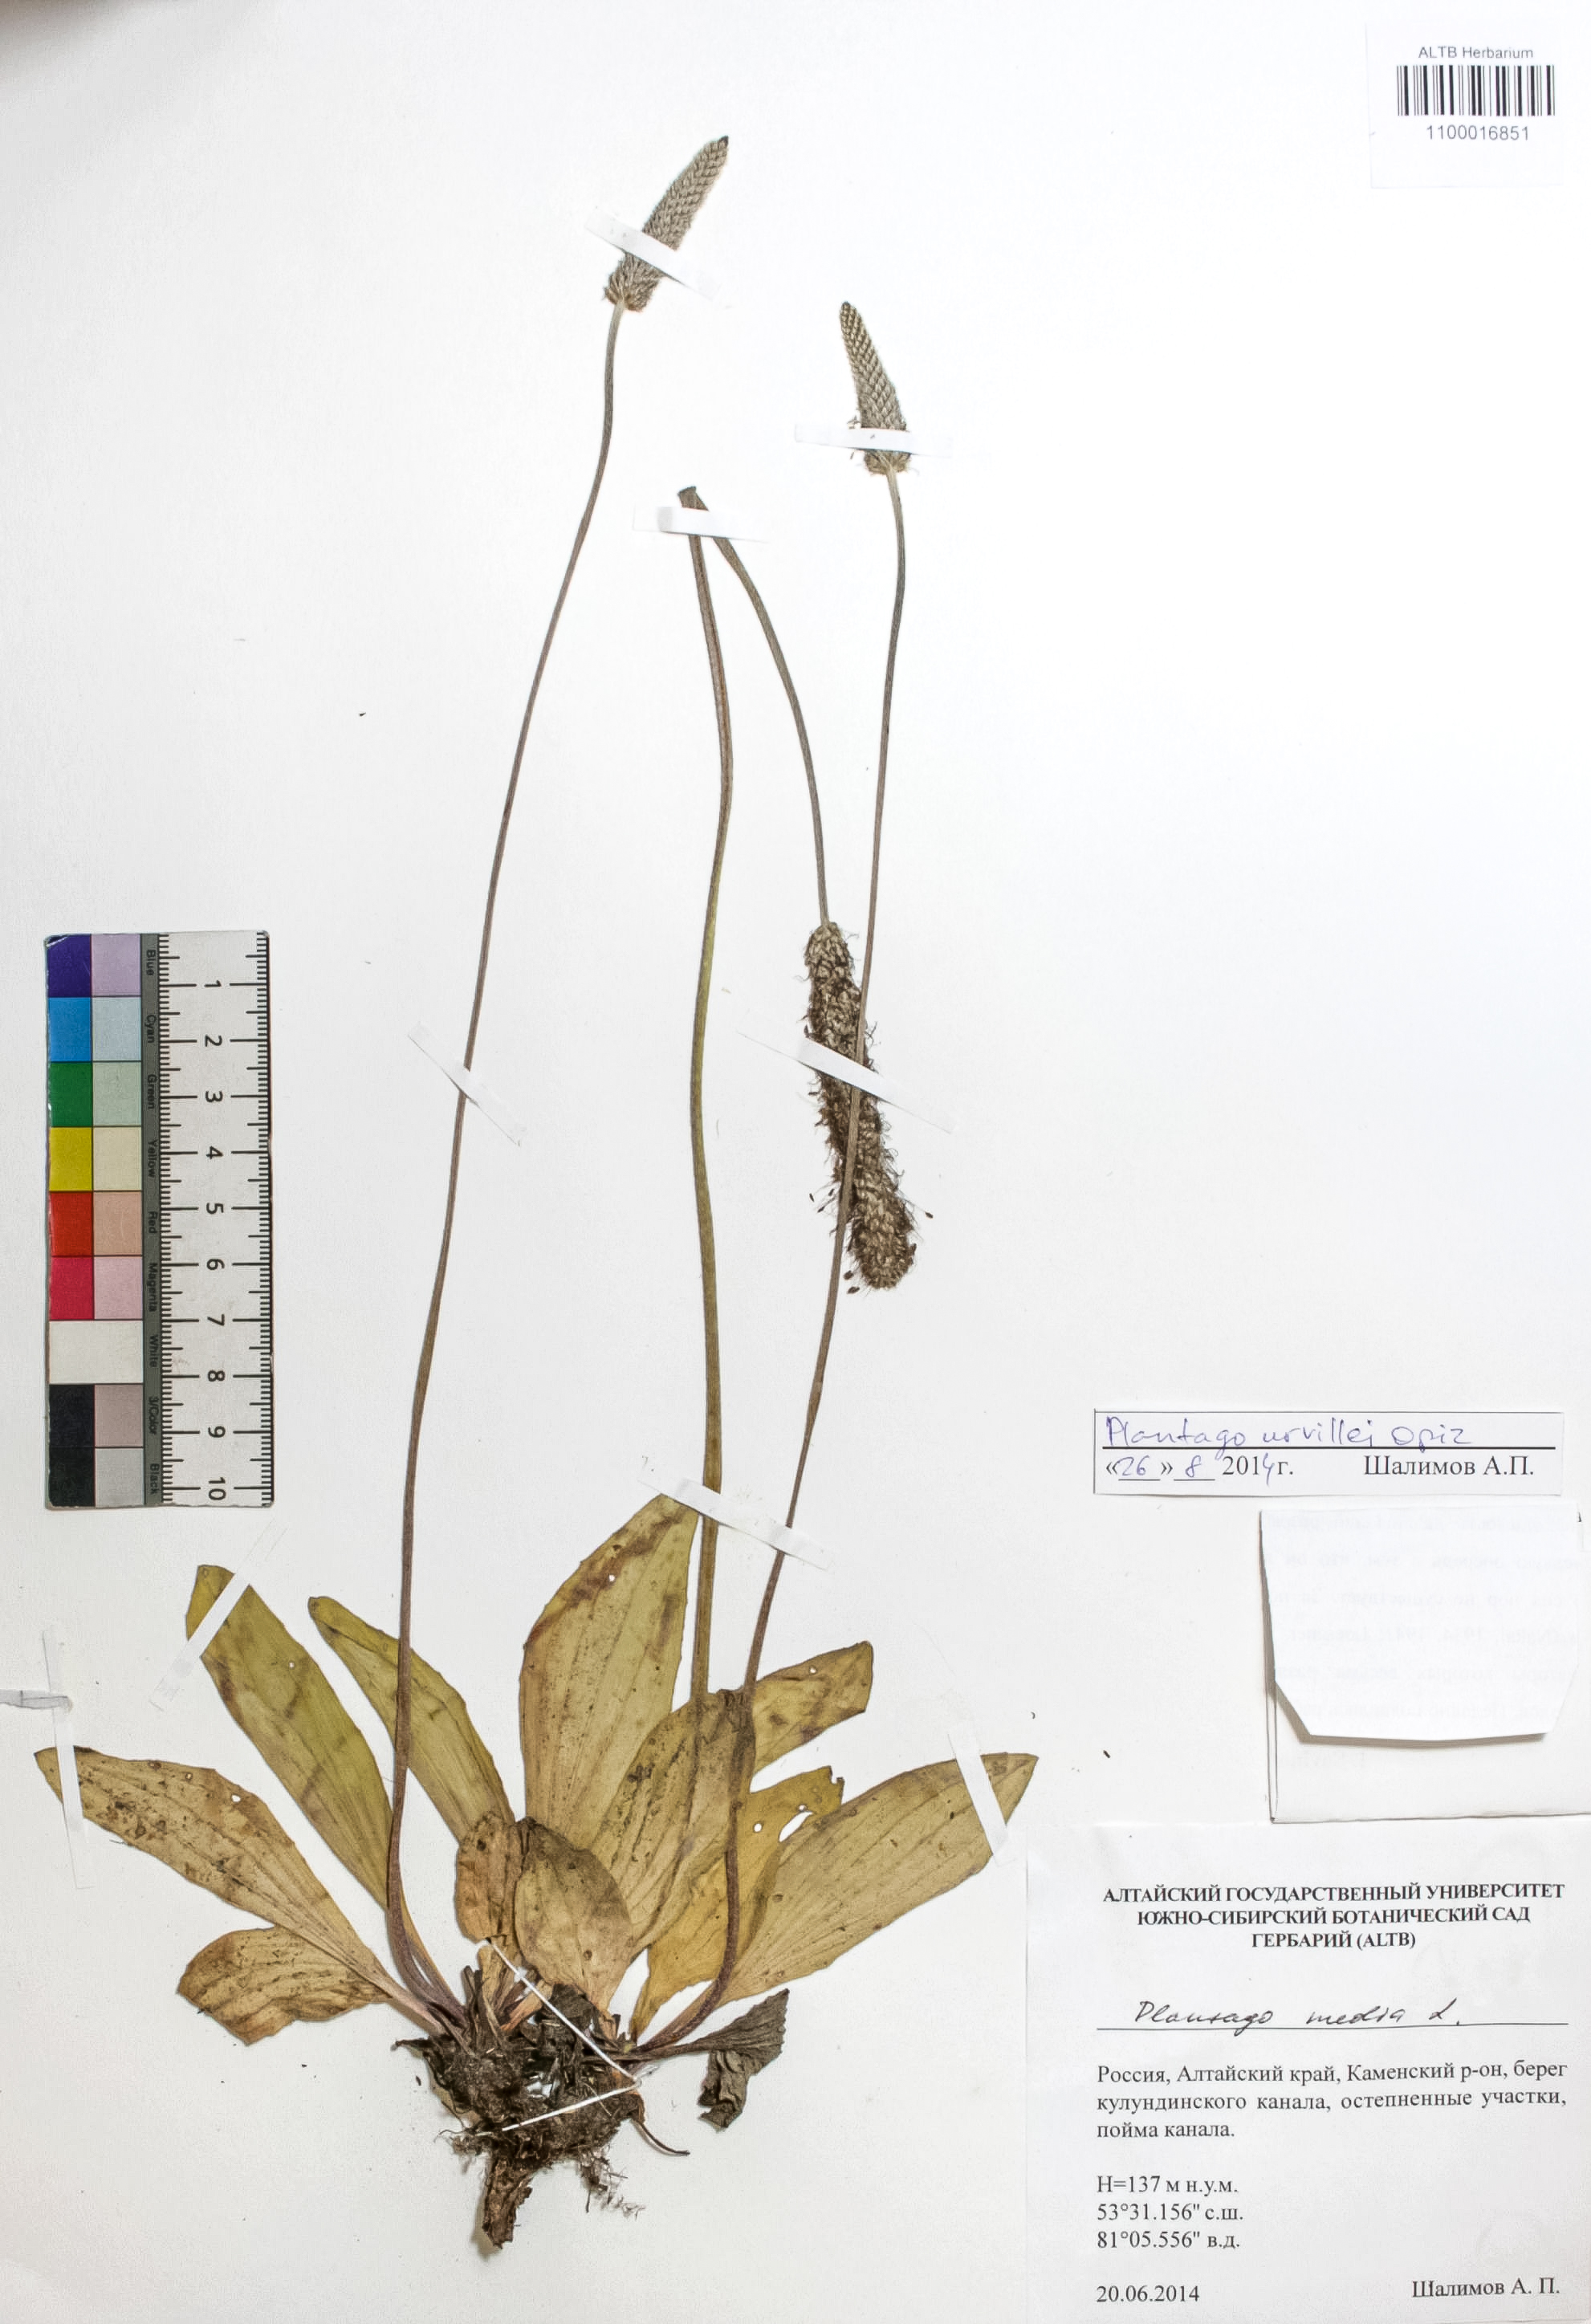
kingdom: Plantae
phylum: Tracheophyta
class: Magnoliopsida
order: Lamiales
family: Plantaginaceae
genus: Plantago
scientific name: Plantago urvillei
